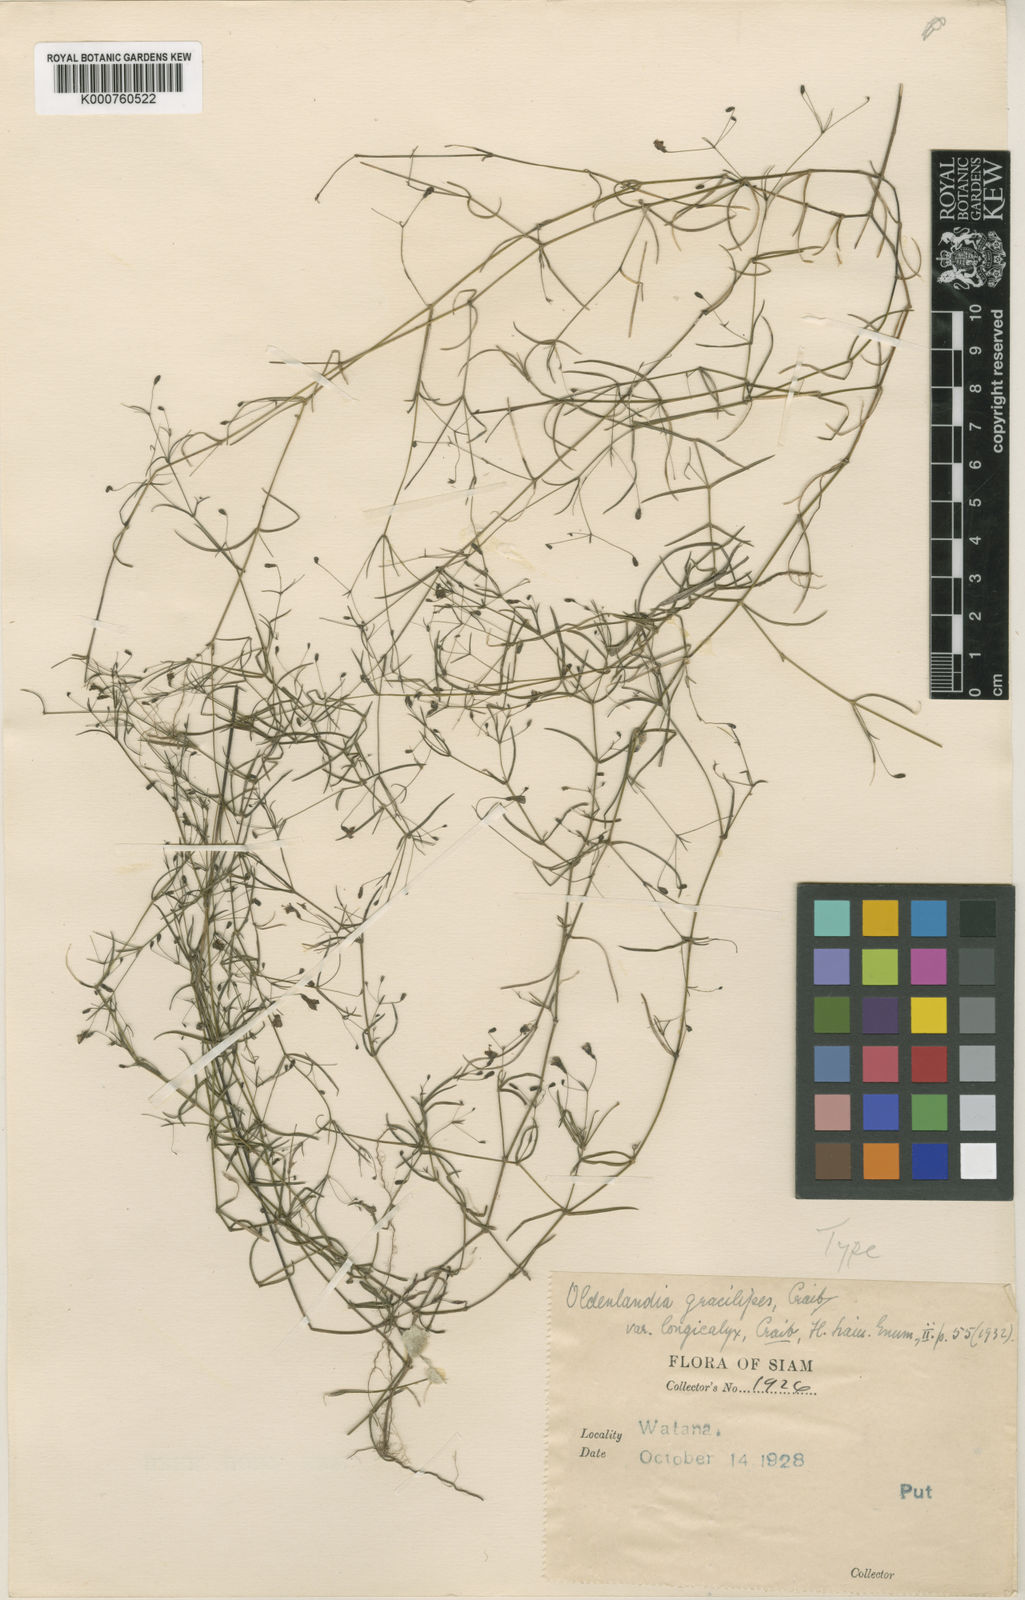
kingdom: Plantae
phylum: Tracheophyta
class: Magnoliopsida
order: Gentianales
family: Rubiaceae
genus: Scleromitrion
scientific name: Scleromitrion gracilipes
